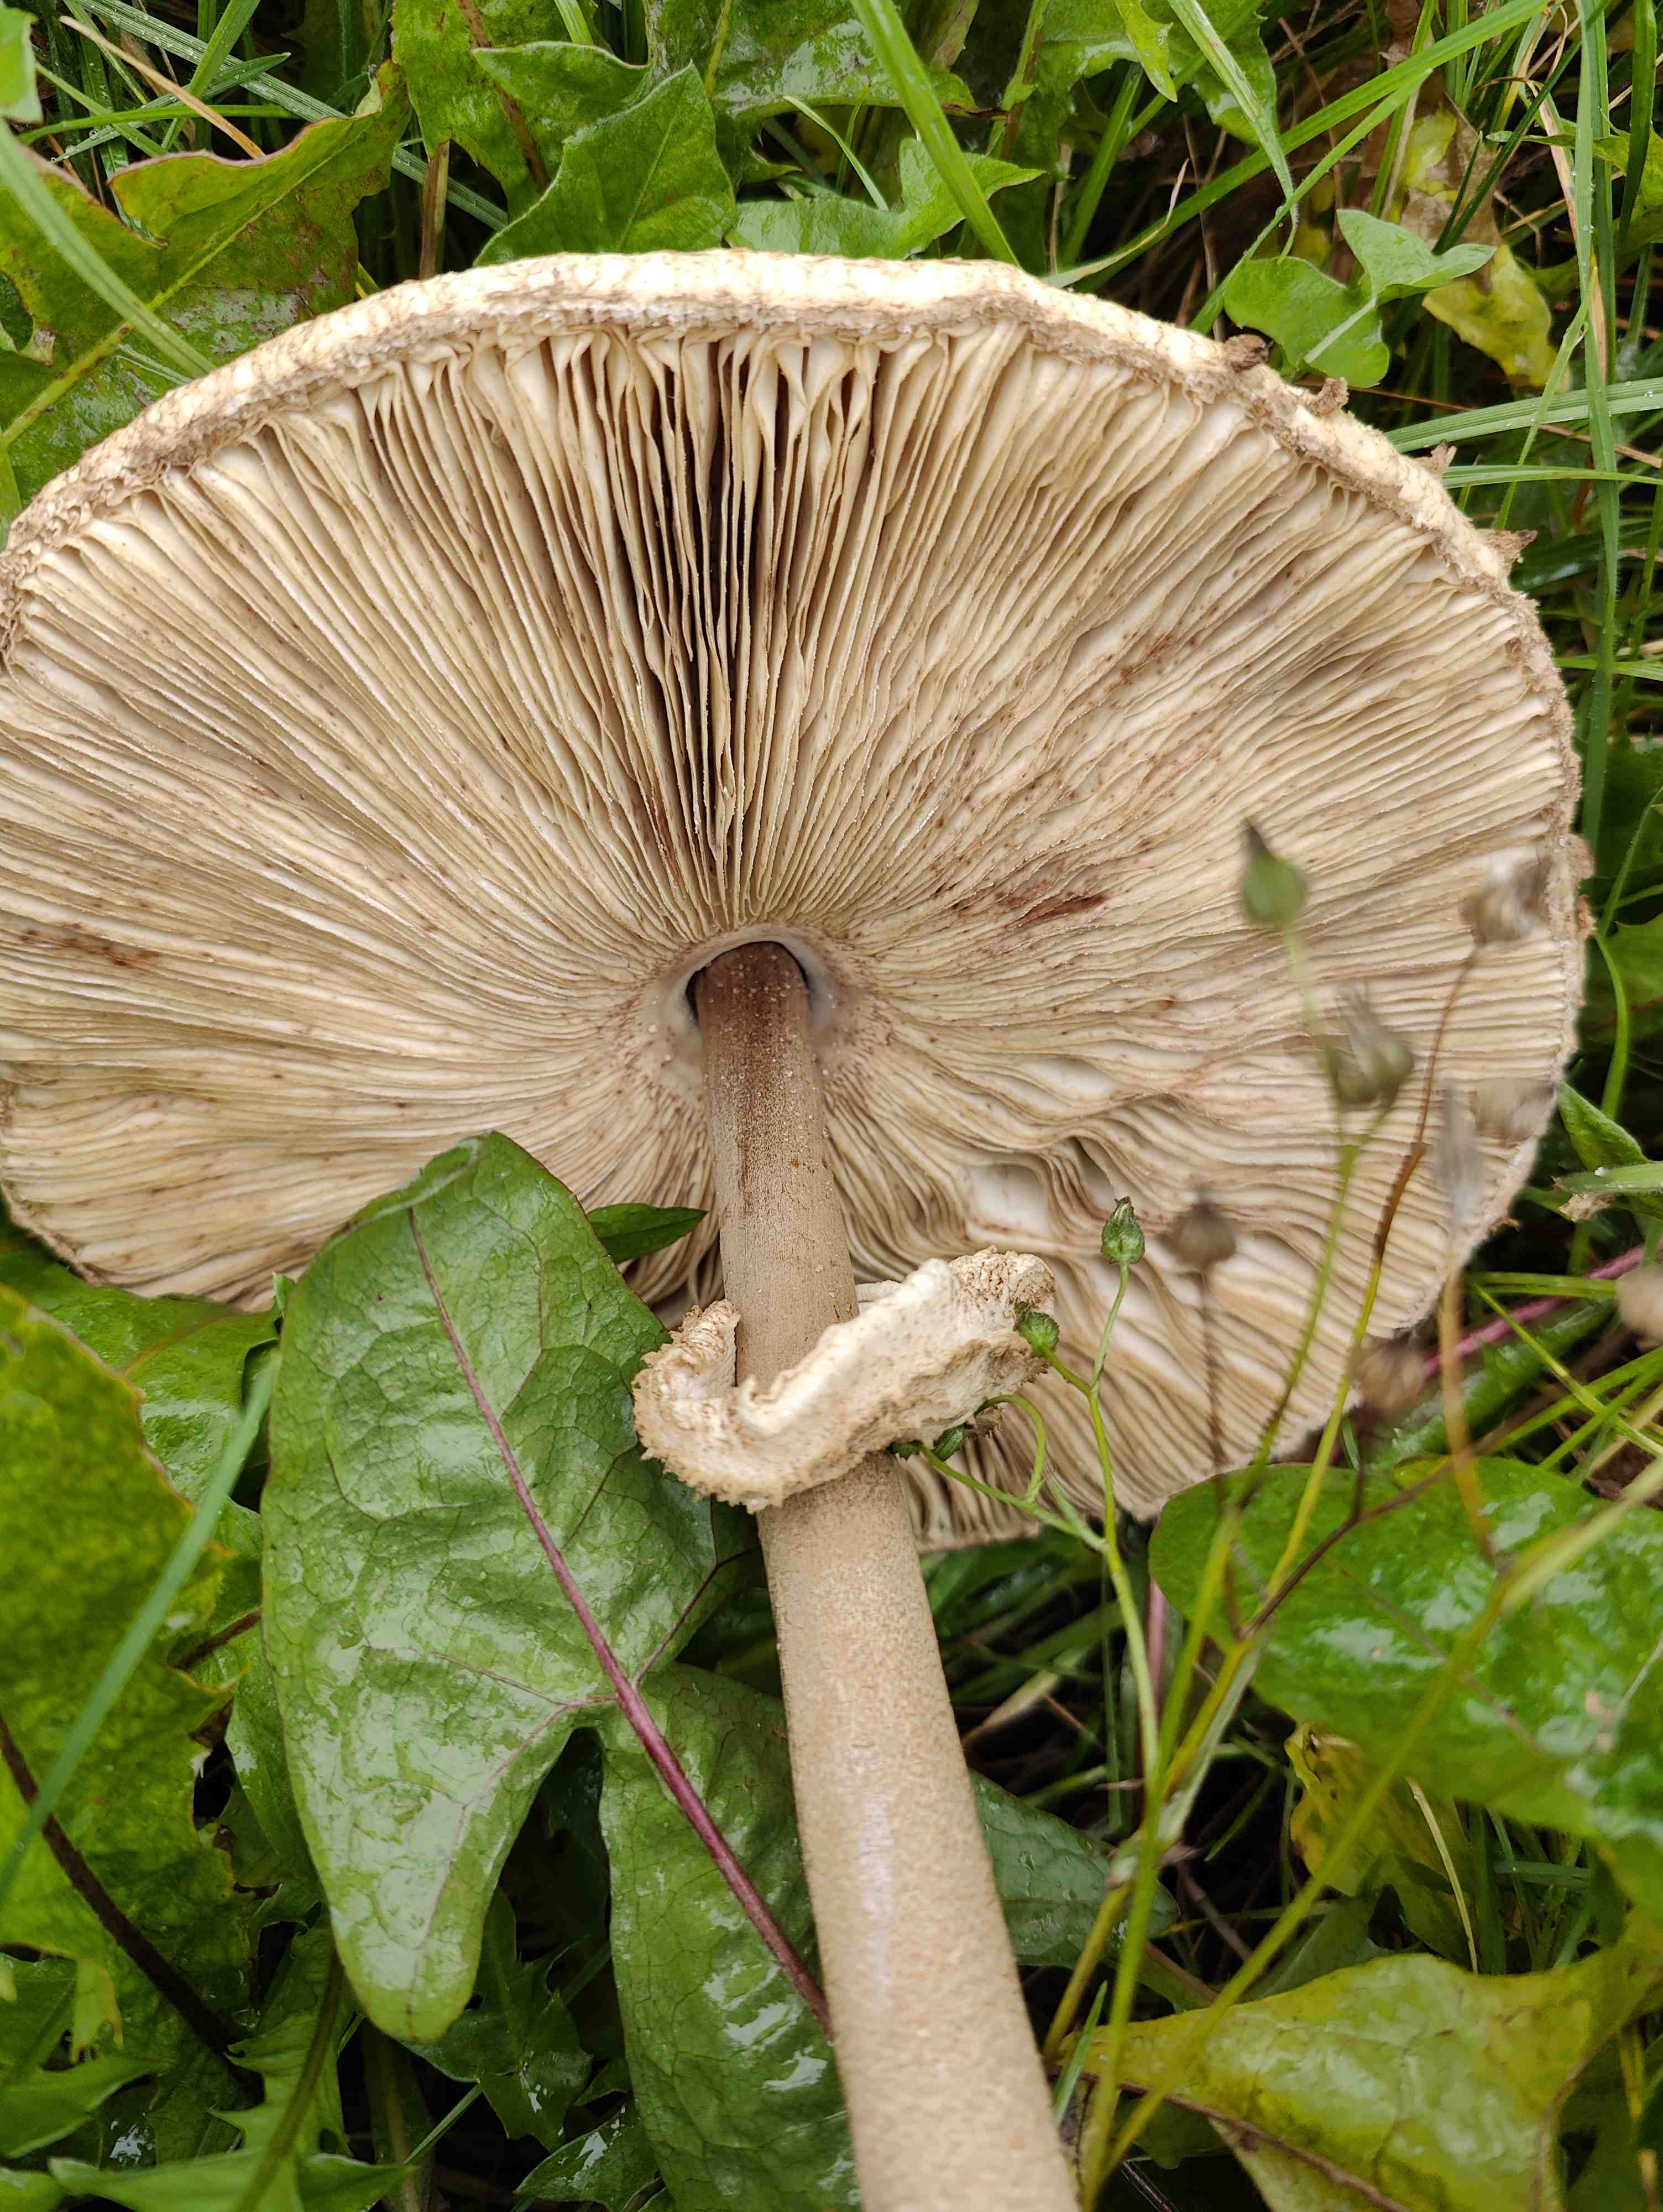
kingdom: Fungi
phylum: Basidiomycota
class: Agaricomycetes
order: Agaricales
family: Agaricaceae
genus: Macrolepiota
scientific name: Macrolepiota procera
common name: stor kæmpeparasolhat
